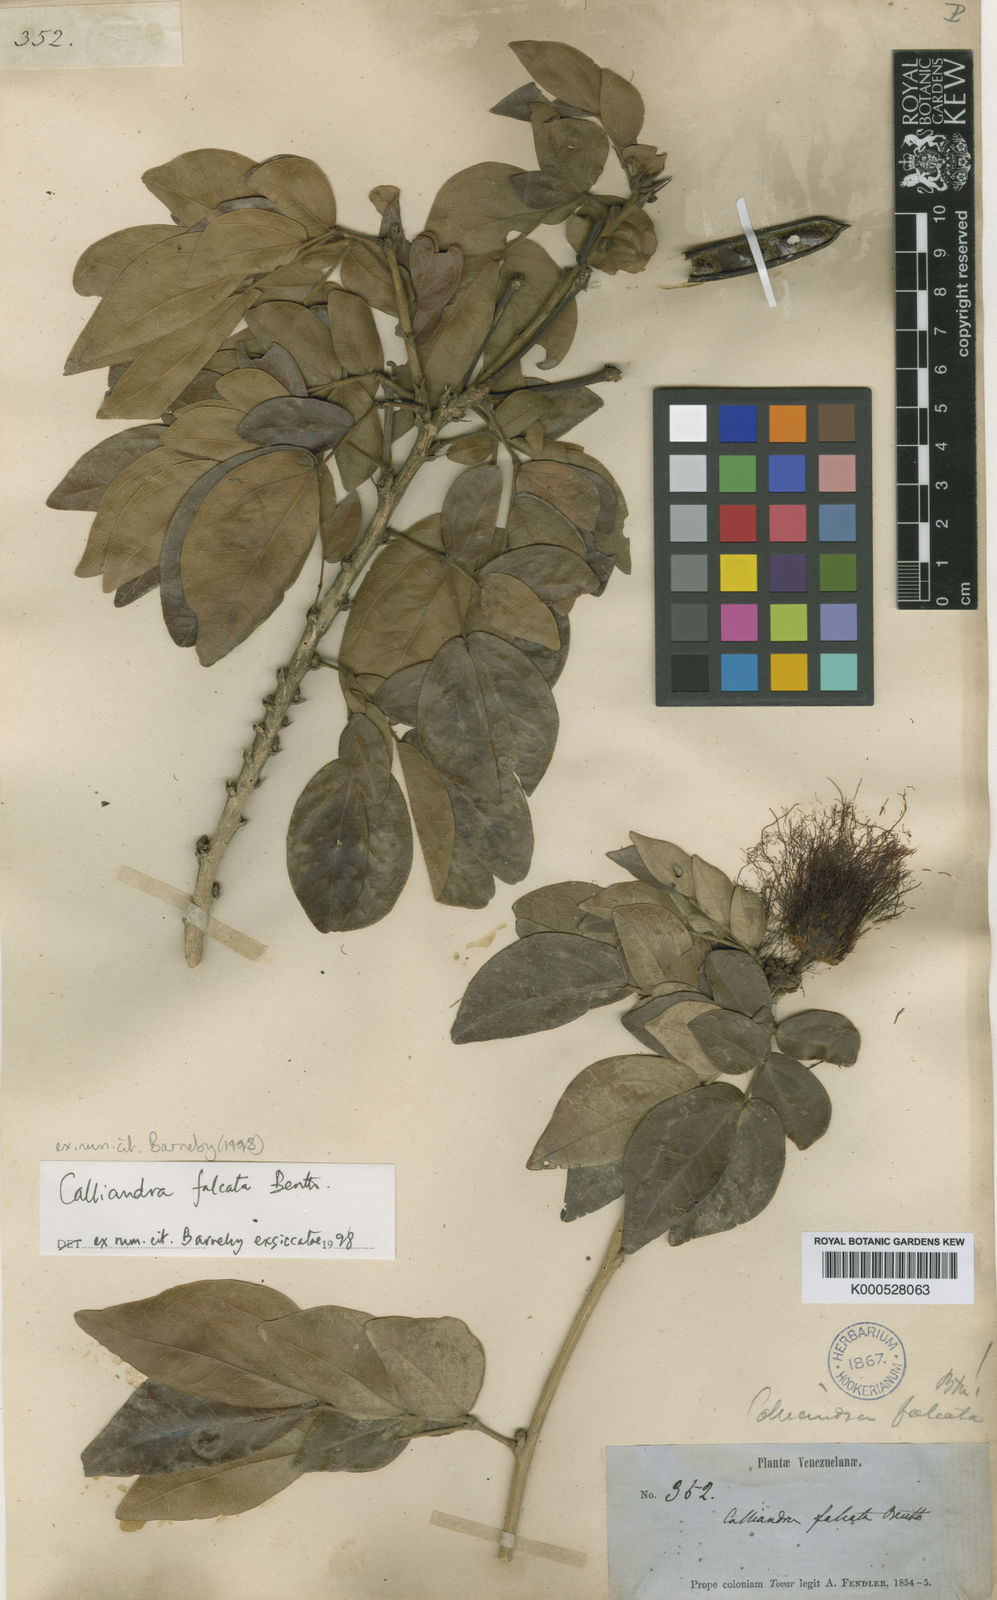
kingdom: Plantae
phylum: Tracheophyta
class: Magnoliopsida
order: Fabales
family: Fabaceae
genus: Calliandra
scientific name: Calliandra falcata
